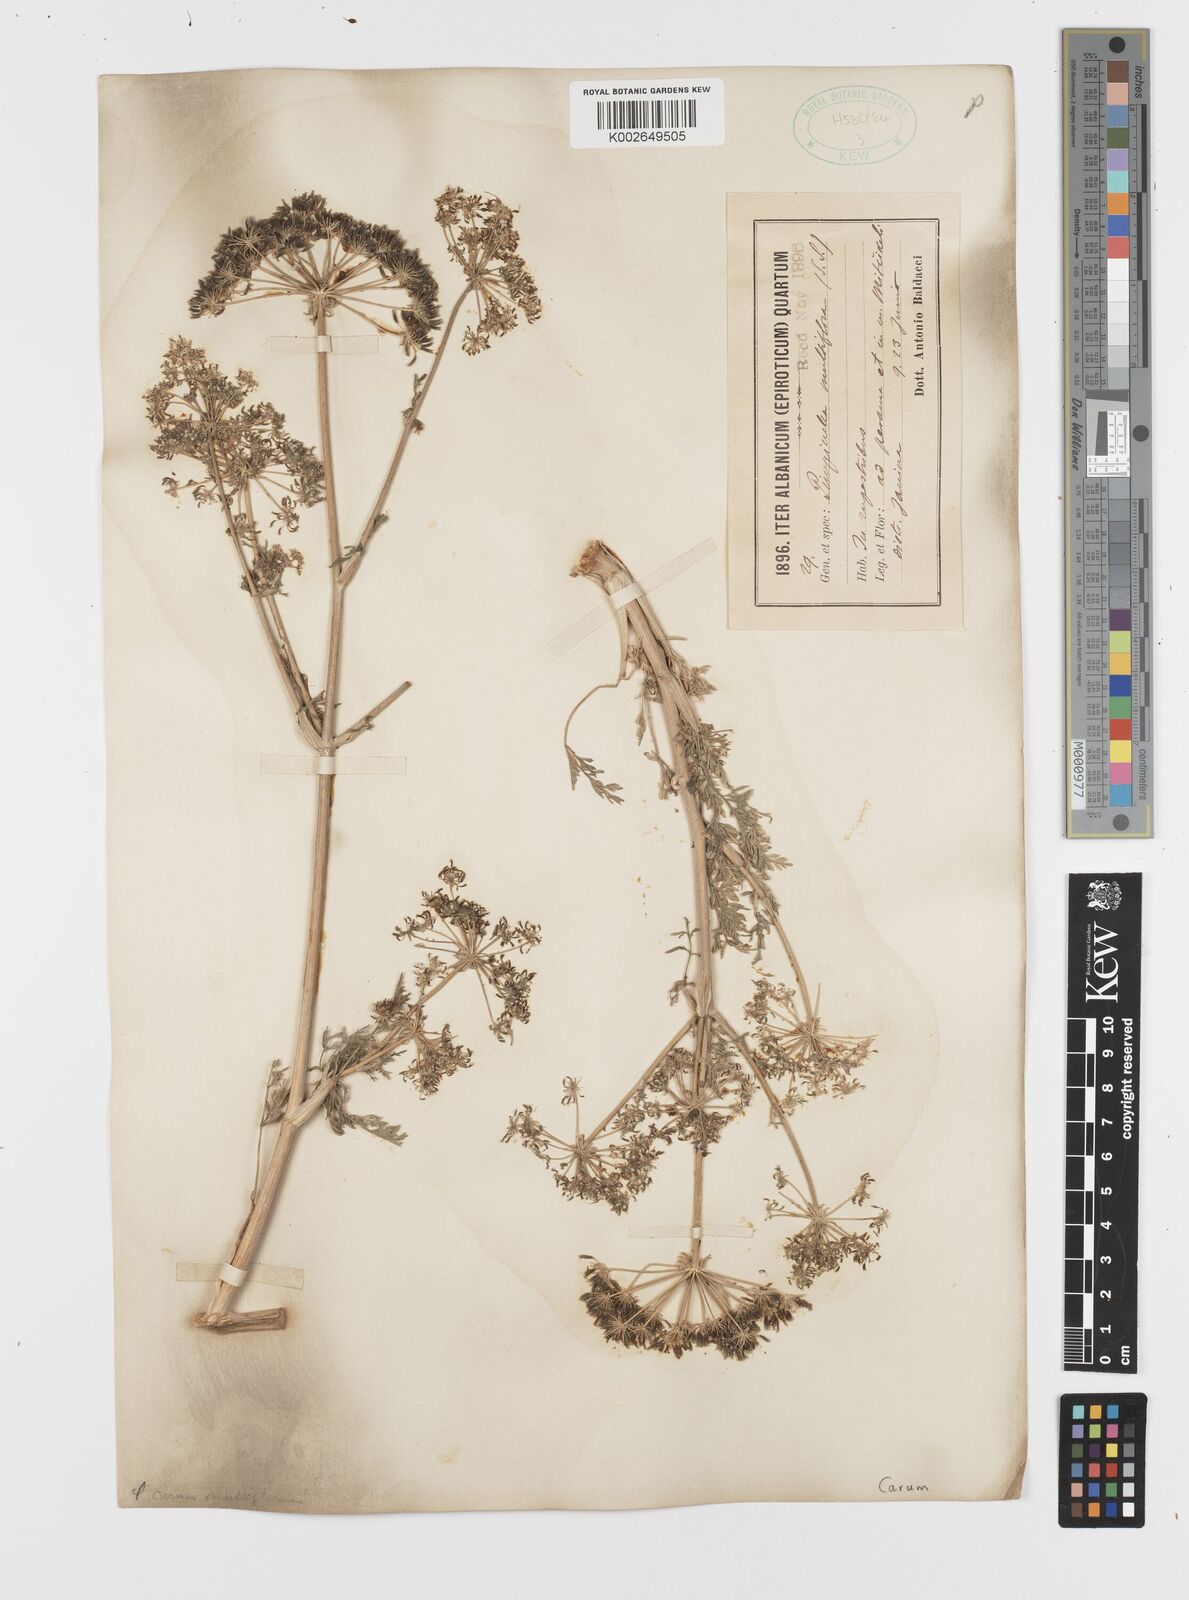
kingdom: Plantae
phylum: Tracheophyta
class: Magnoliopsida
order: Apiales
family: Apiaceae
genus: Hellenocarum
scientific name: Hellenocarum multiflorum
